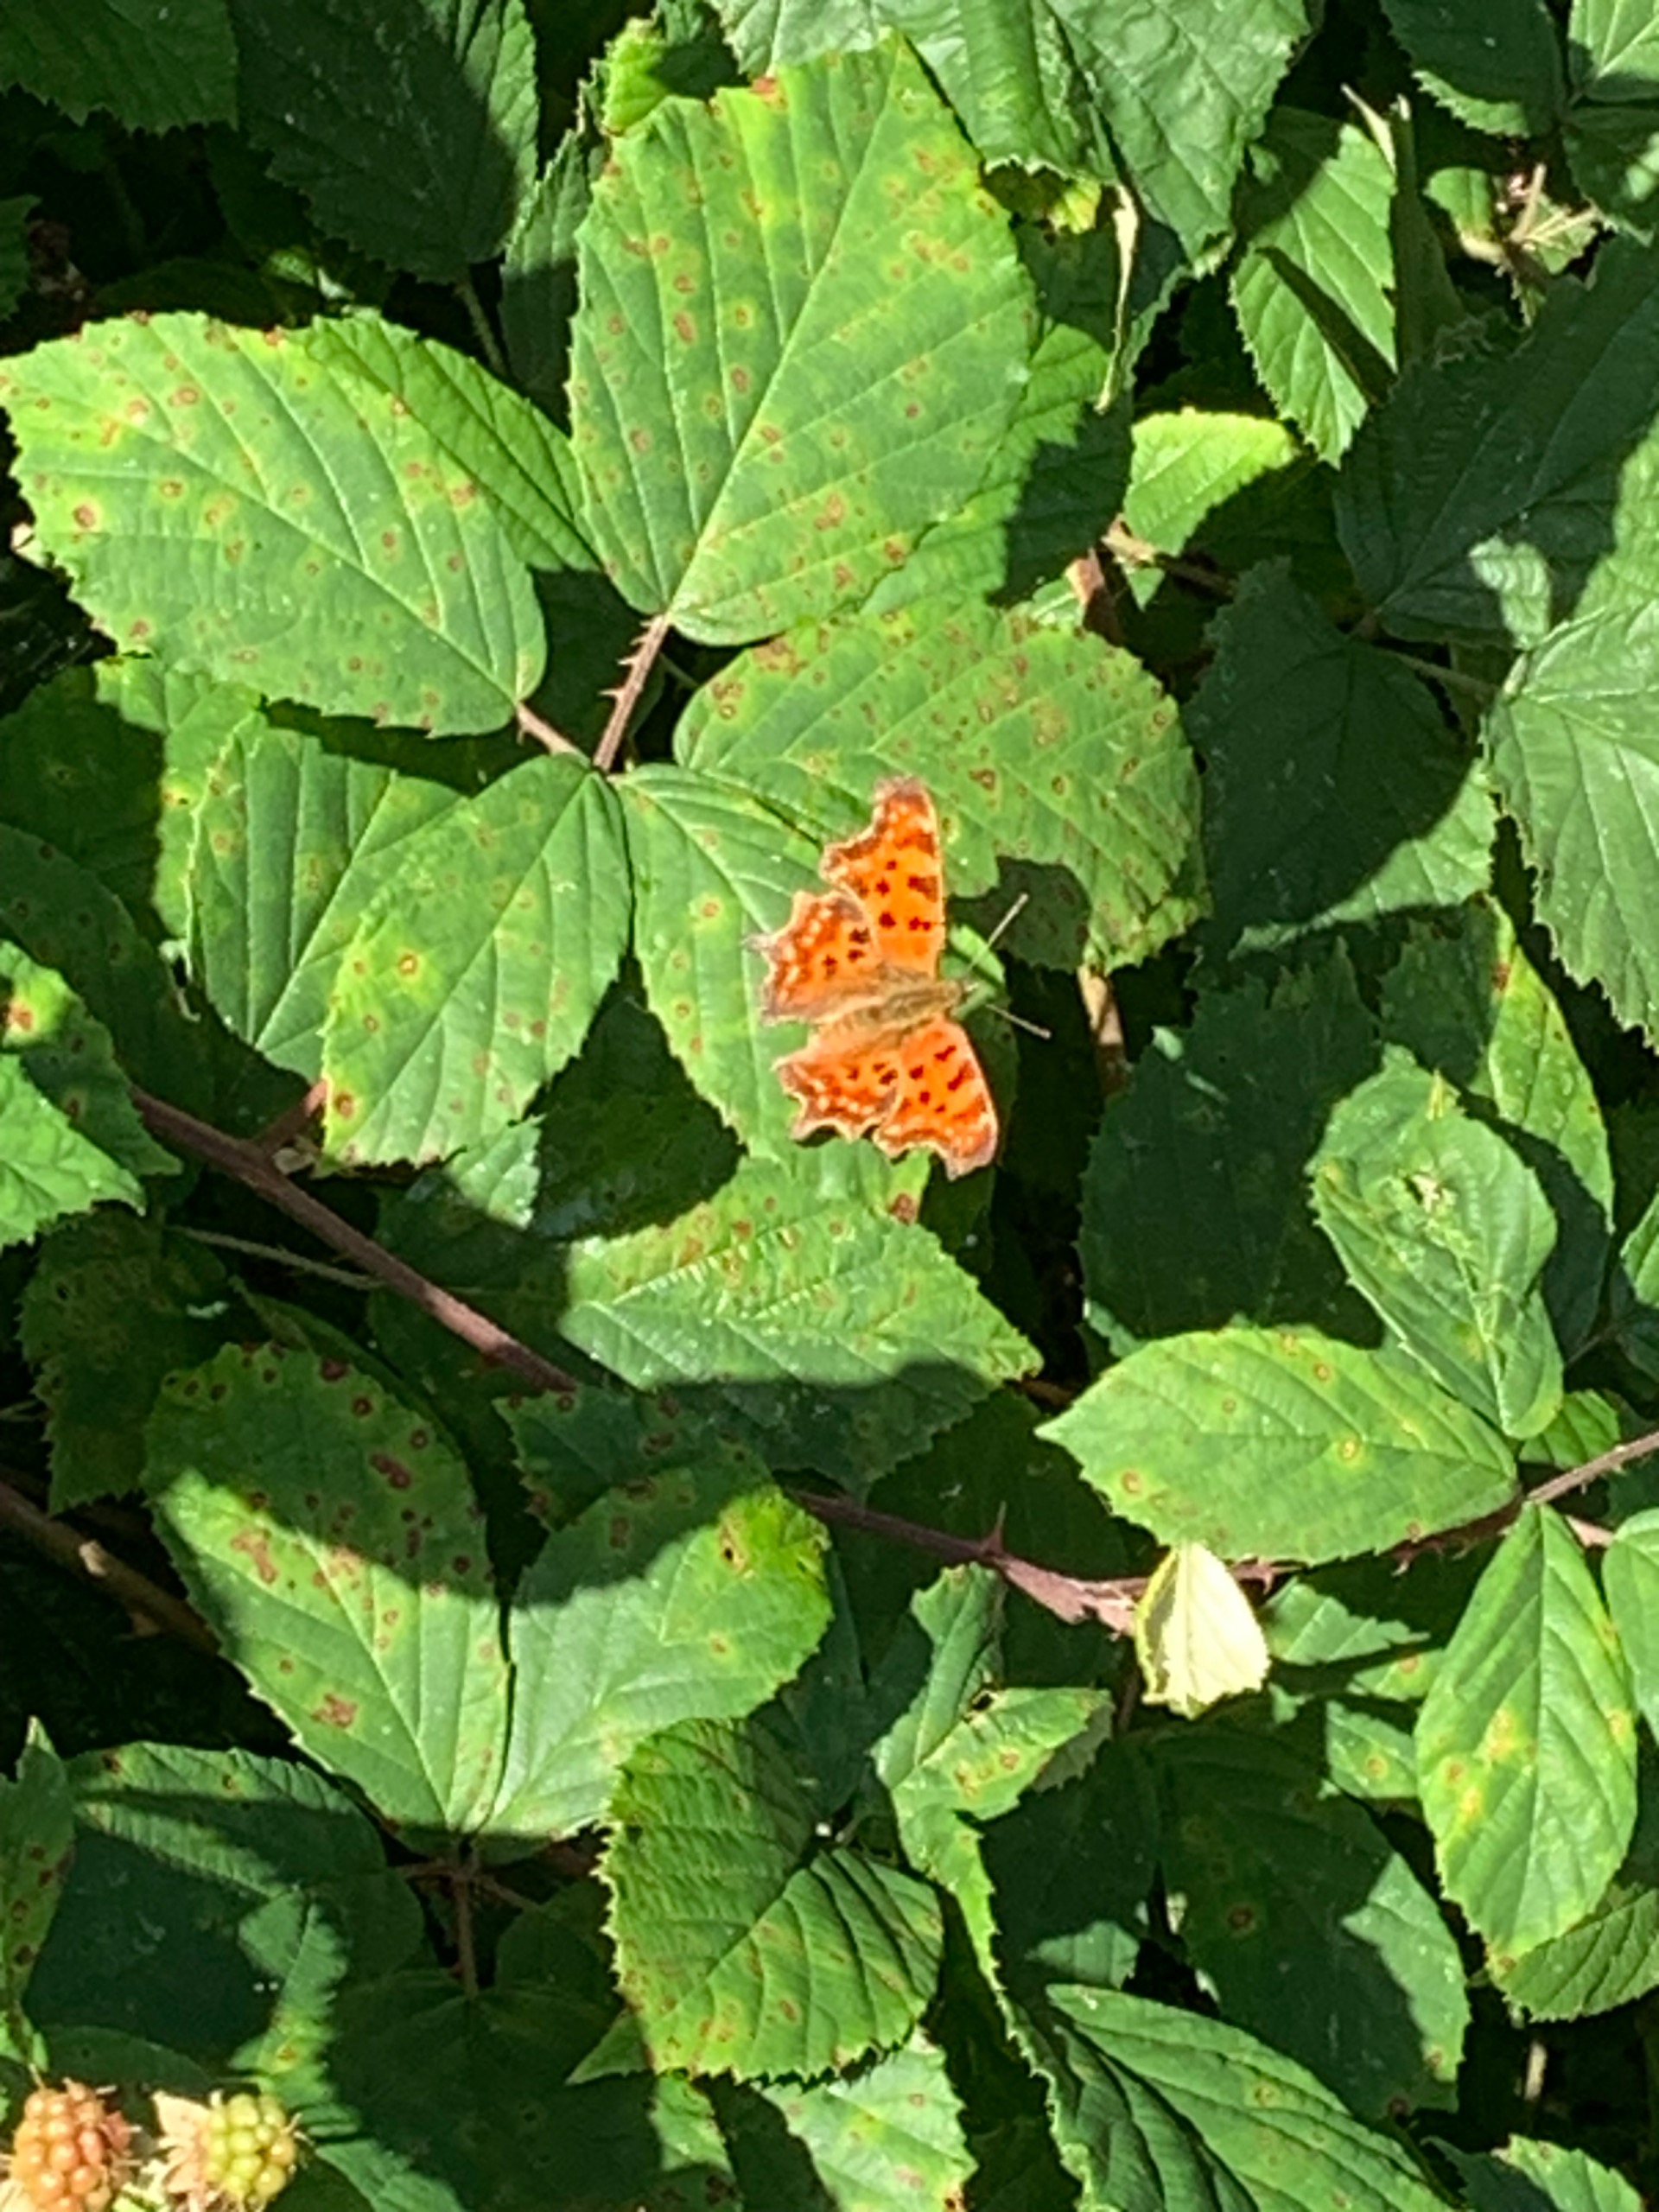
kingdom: Animalia
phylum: Arthropoda
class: Insecta
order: Lepidoptera
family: Nymphalidae
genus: Polygonia
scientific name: Polygonia c-album
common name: Det hvide C
